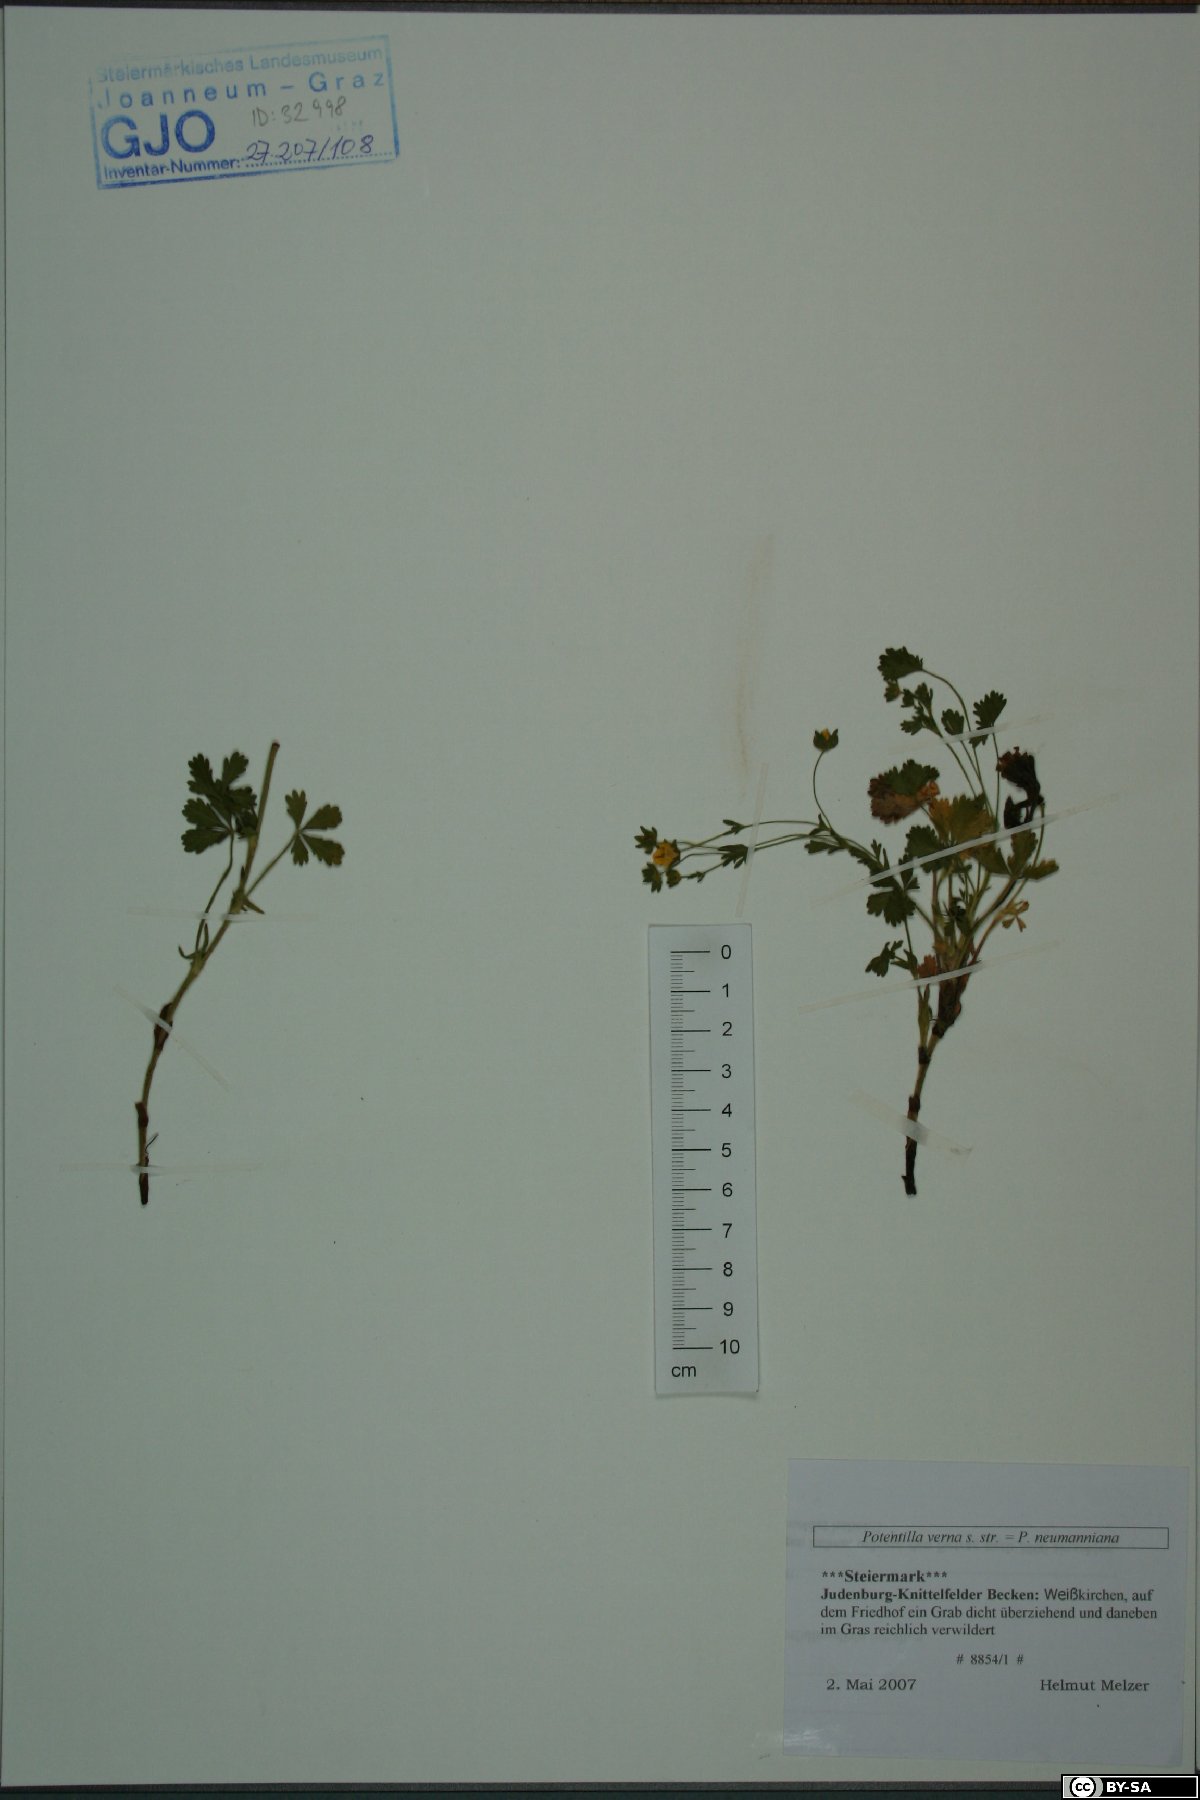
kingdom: Plantae
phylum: Tracheophyta
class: Magnoliopsida
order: Rosales
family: Rosaceae
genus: Potentilla
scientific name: Potentilla verna
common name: Spring cinquefoil
